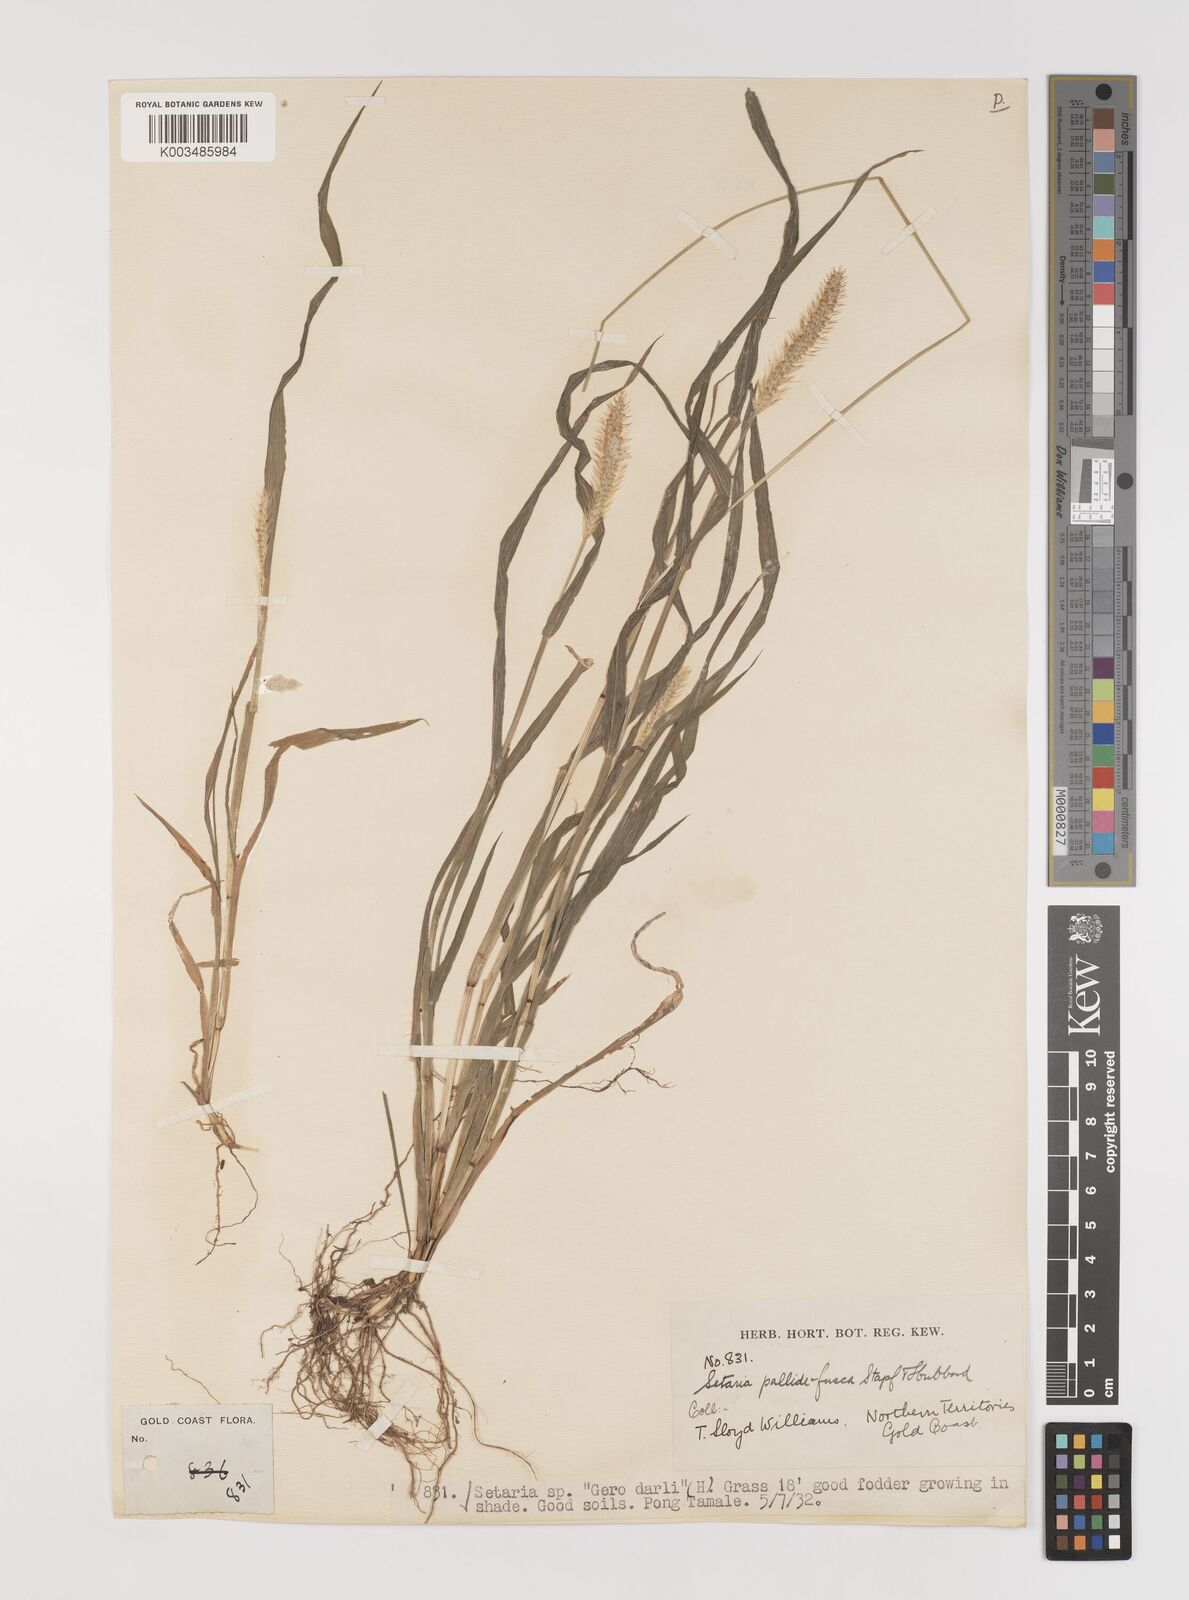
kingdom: Plantae
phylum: Tracheophyta
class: Liliopsida
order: Poales
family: Poaceae
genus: Setaria
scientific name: Setaria pumila
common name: Yellow bristle-grass
